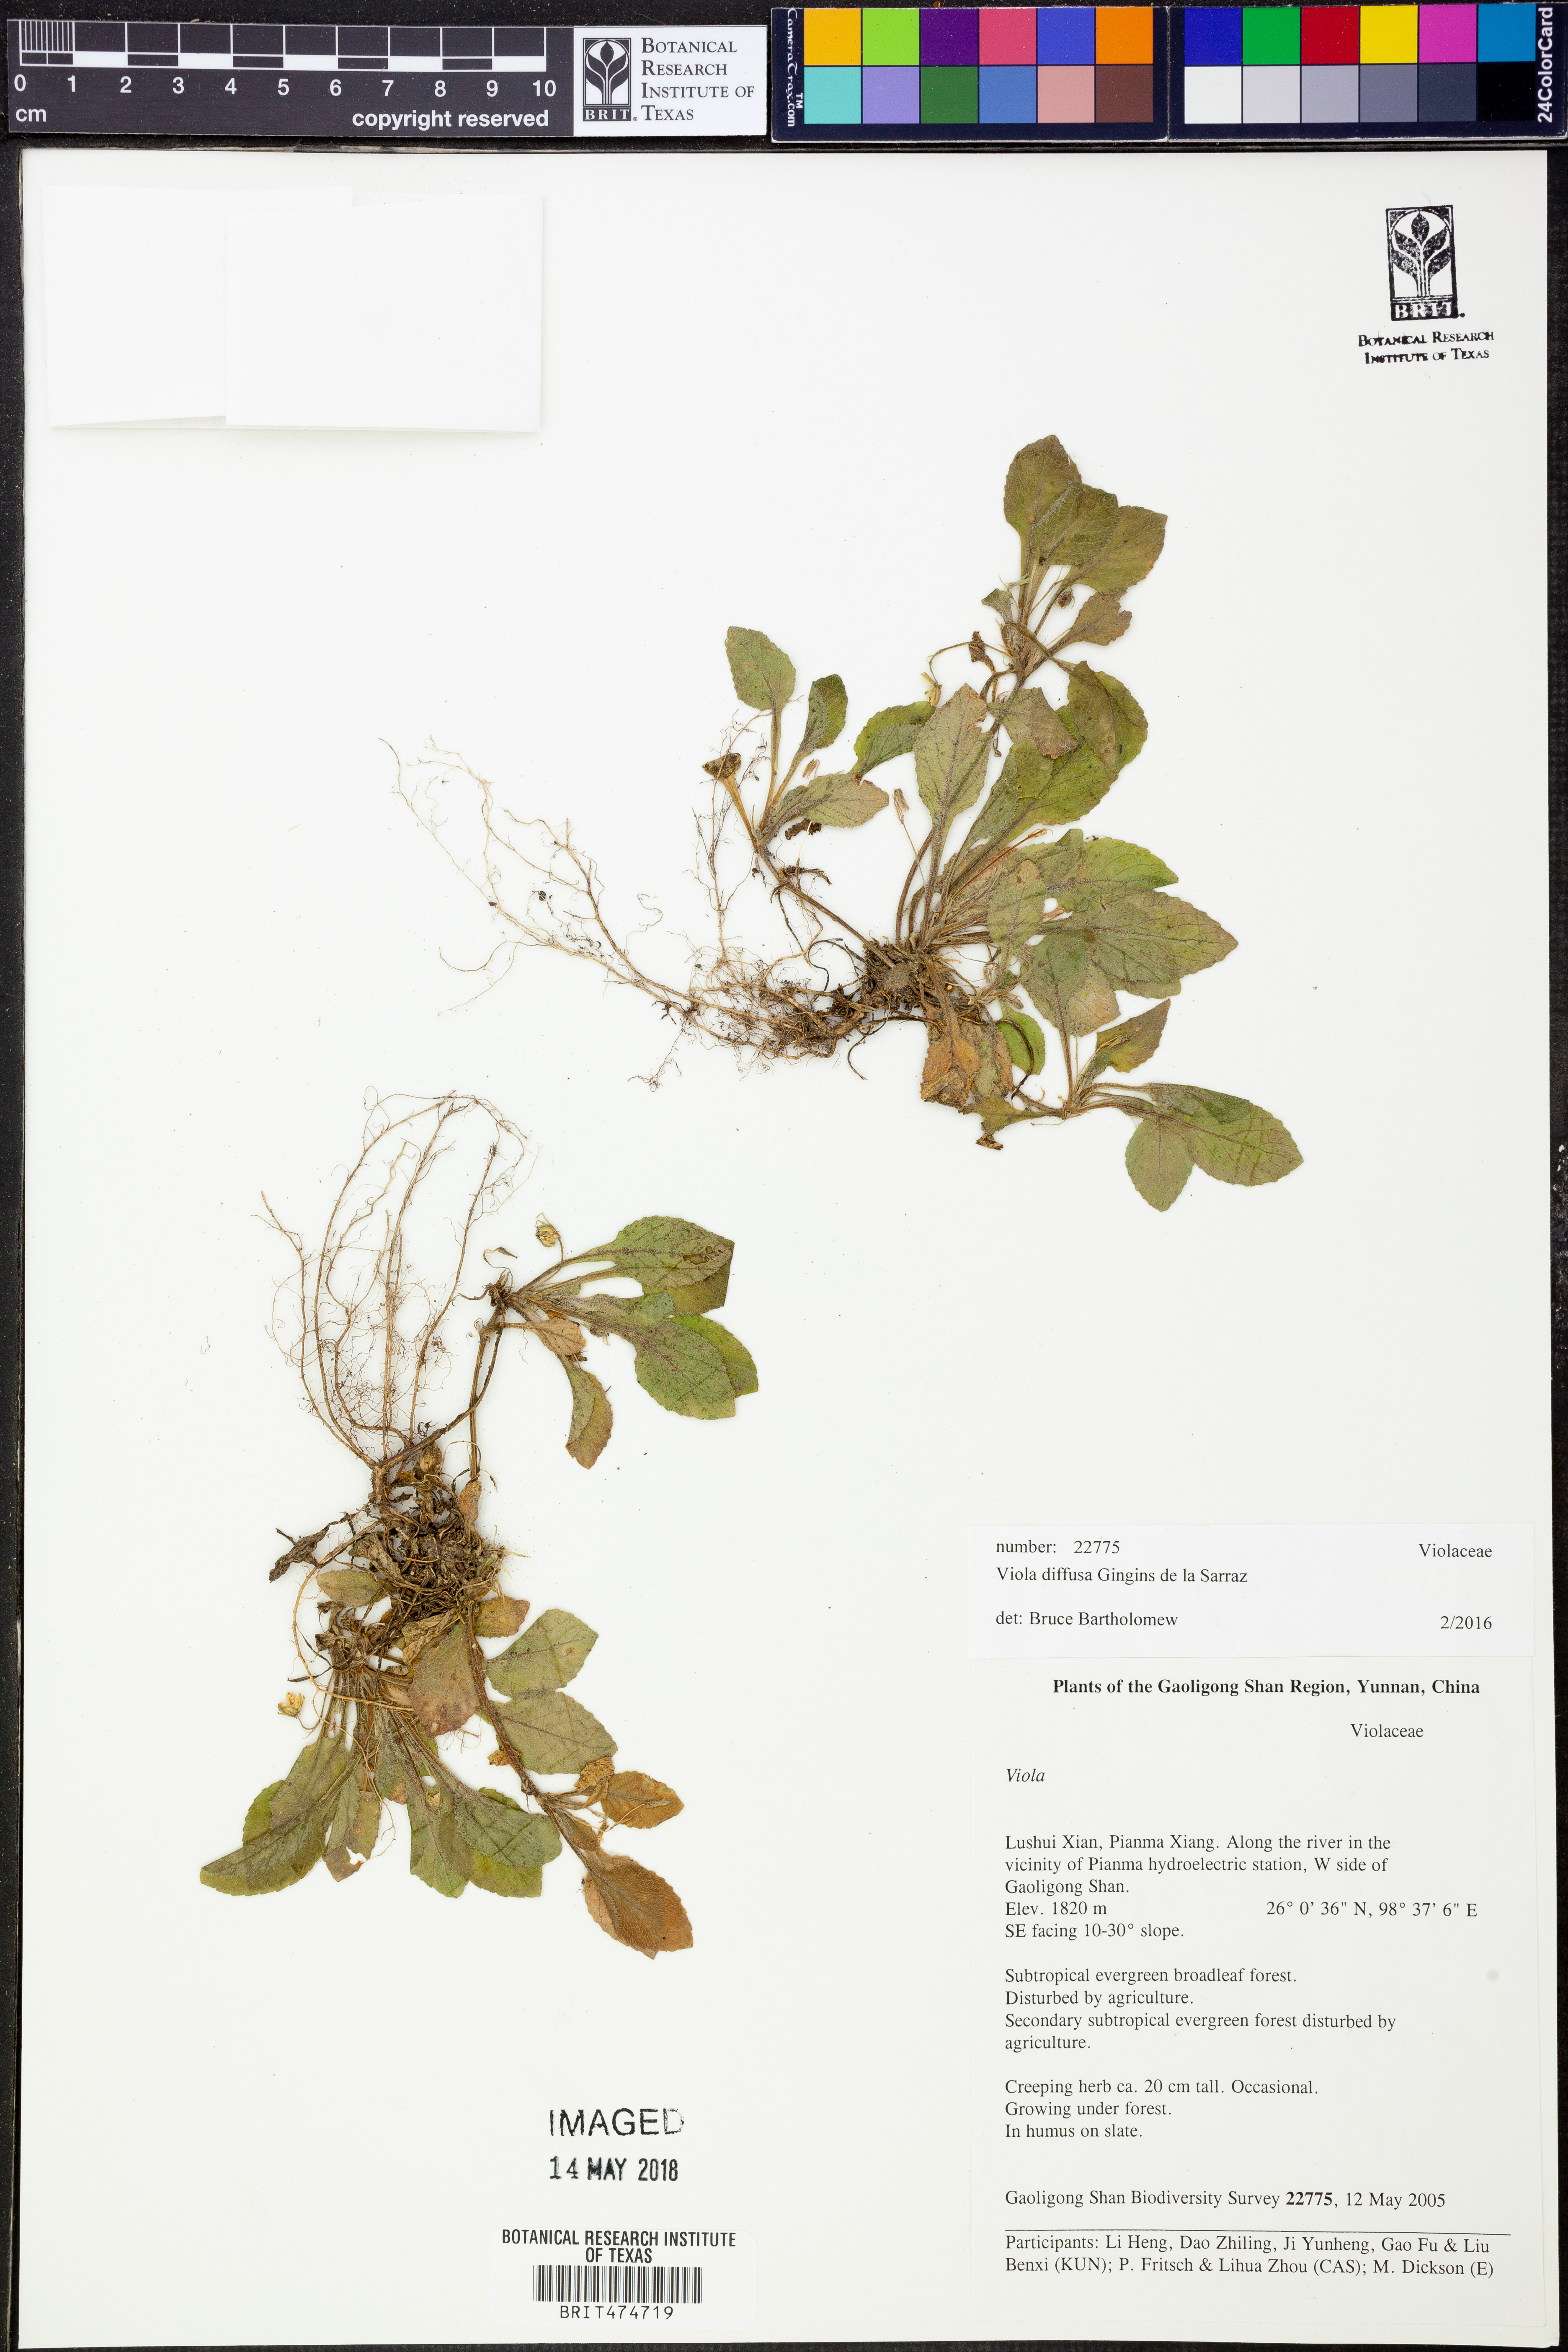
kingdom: Plantae
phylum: Tracheophyta
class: Magnoliopsida
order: Malpighiales
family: Violaceae
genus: Viola
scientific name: Viola diffusa
